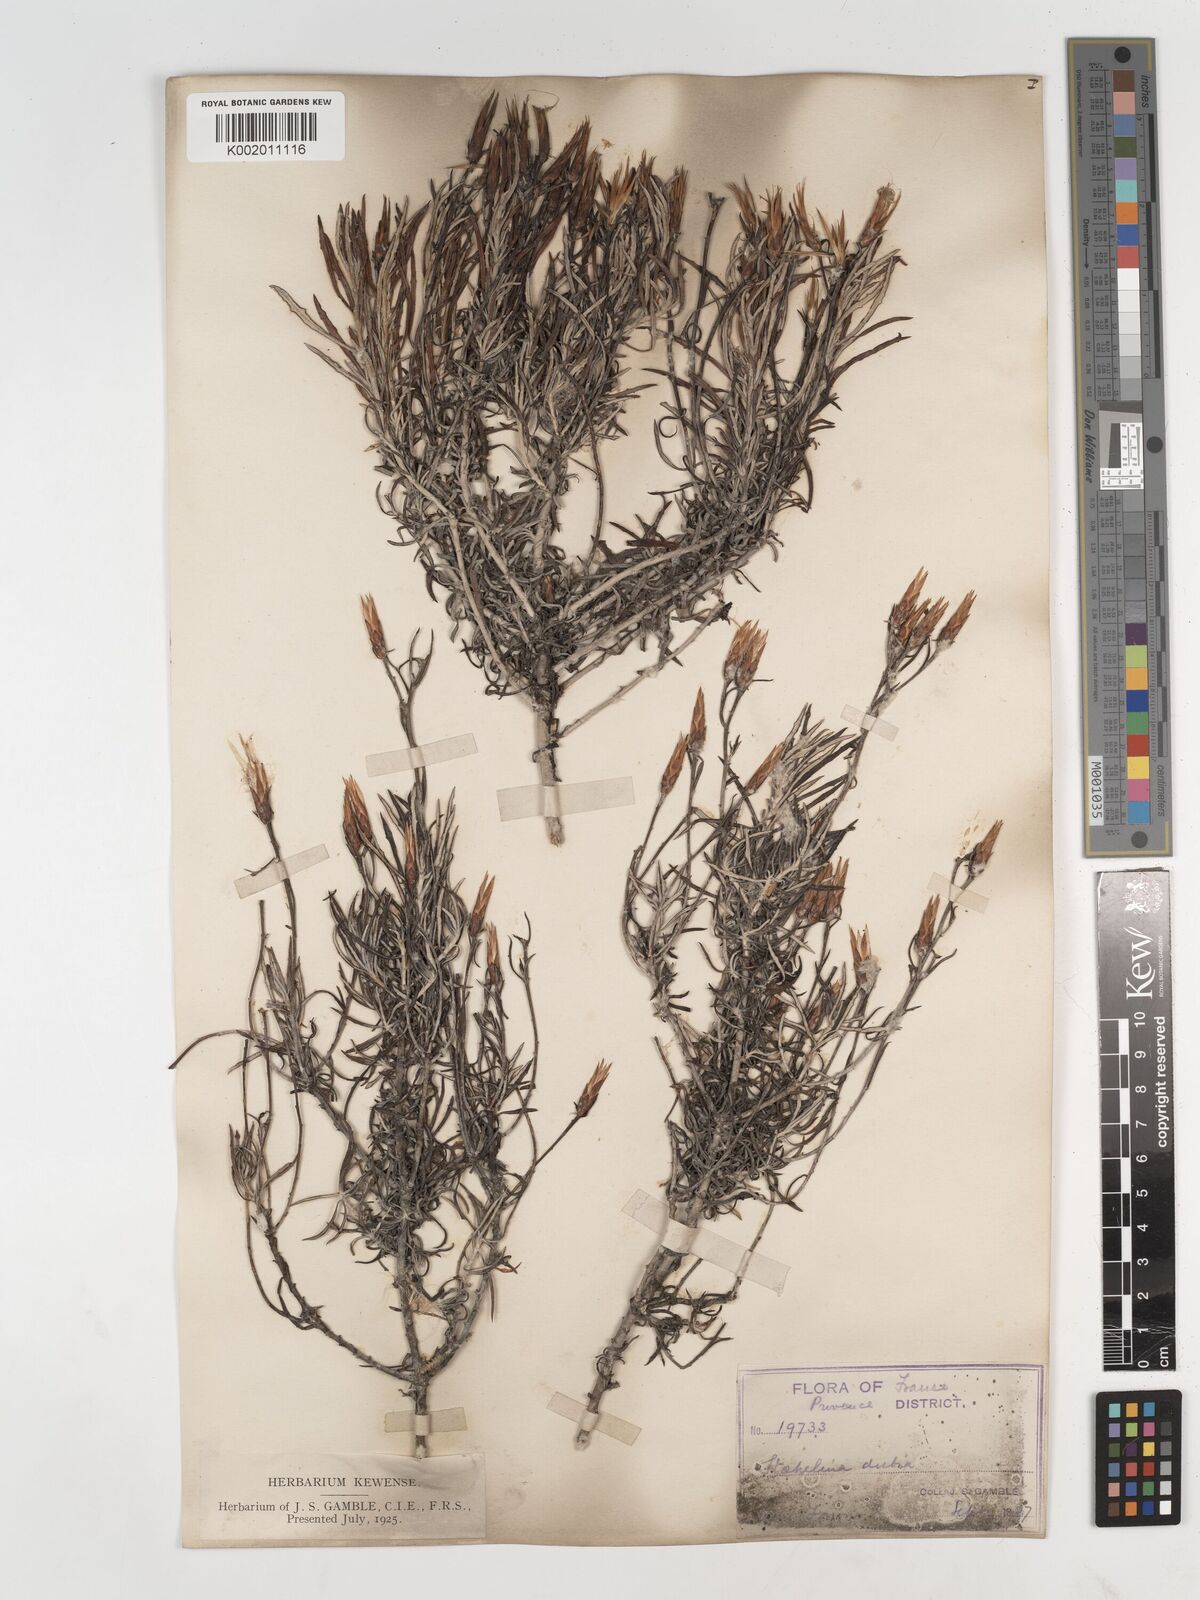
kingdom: Plantae
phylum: Tracheophyta
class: Magnoliopsida
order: Asterales
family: Asteraceae
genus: Staehelina
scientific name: Staehelina dubia
